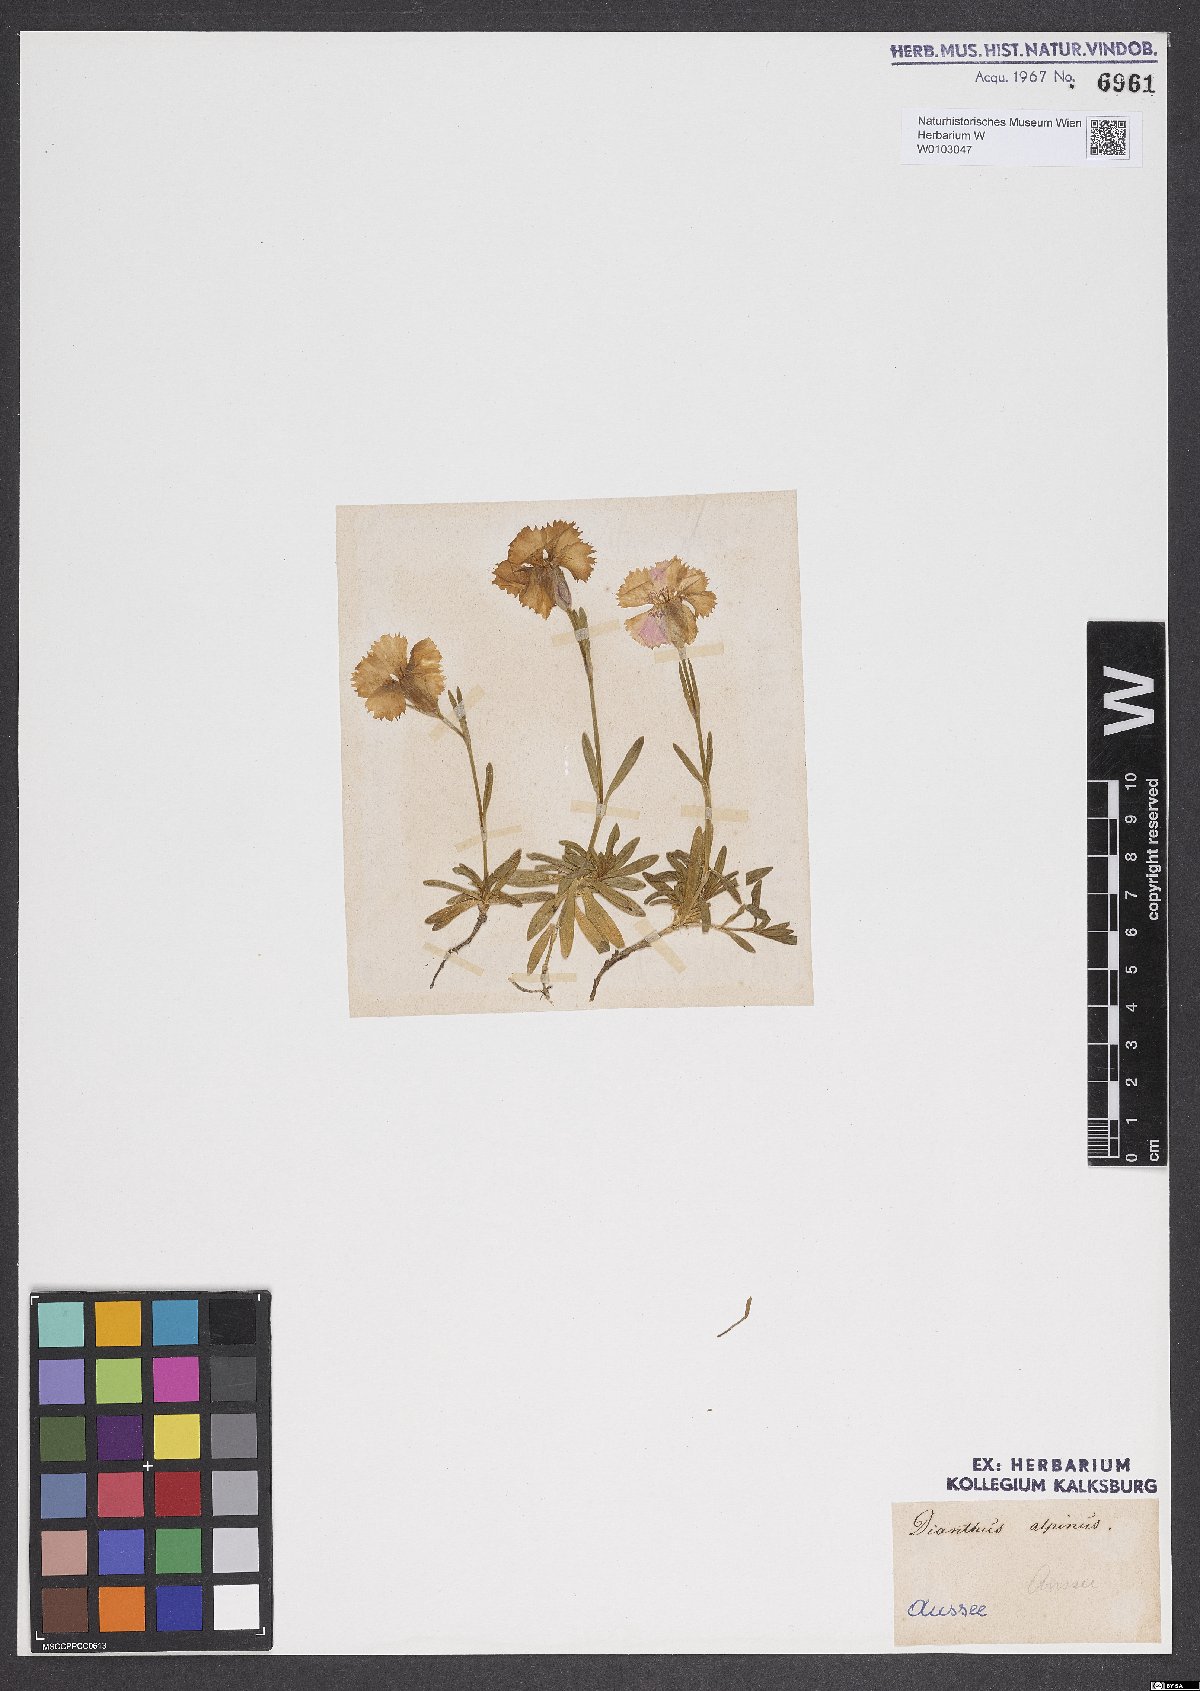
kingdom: Plantae
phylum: Tracheophyta
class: Magnoliopsida
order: Caryophyllales
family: Caryophyllaceae
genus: Dianthus
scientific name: Dianthus alpinus
